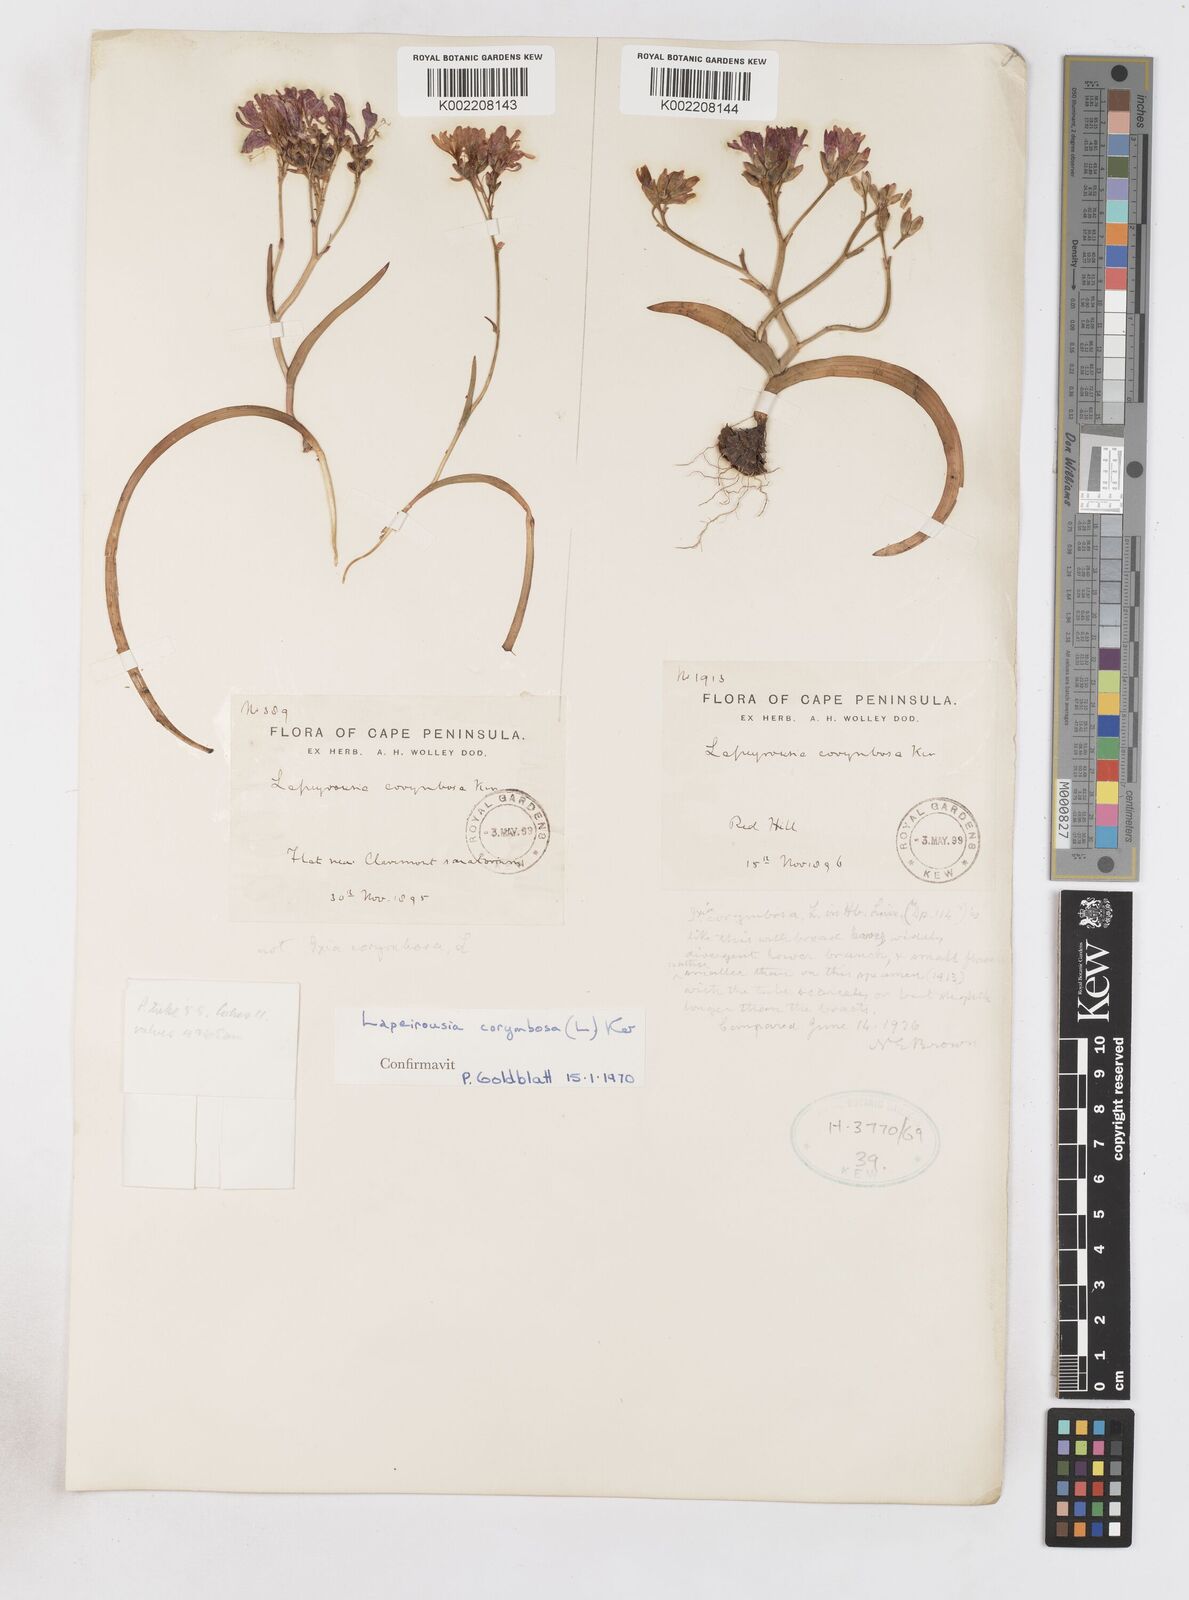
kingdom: Plantae
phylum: Tracheophyta
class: Liliopsida
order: Asparagales
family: Iridaceae
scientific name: Iridaceae
